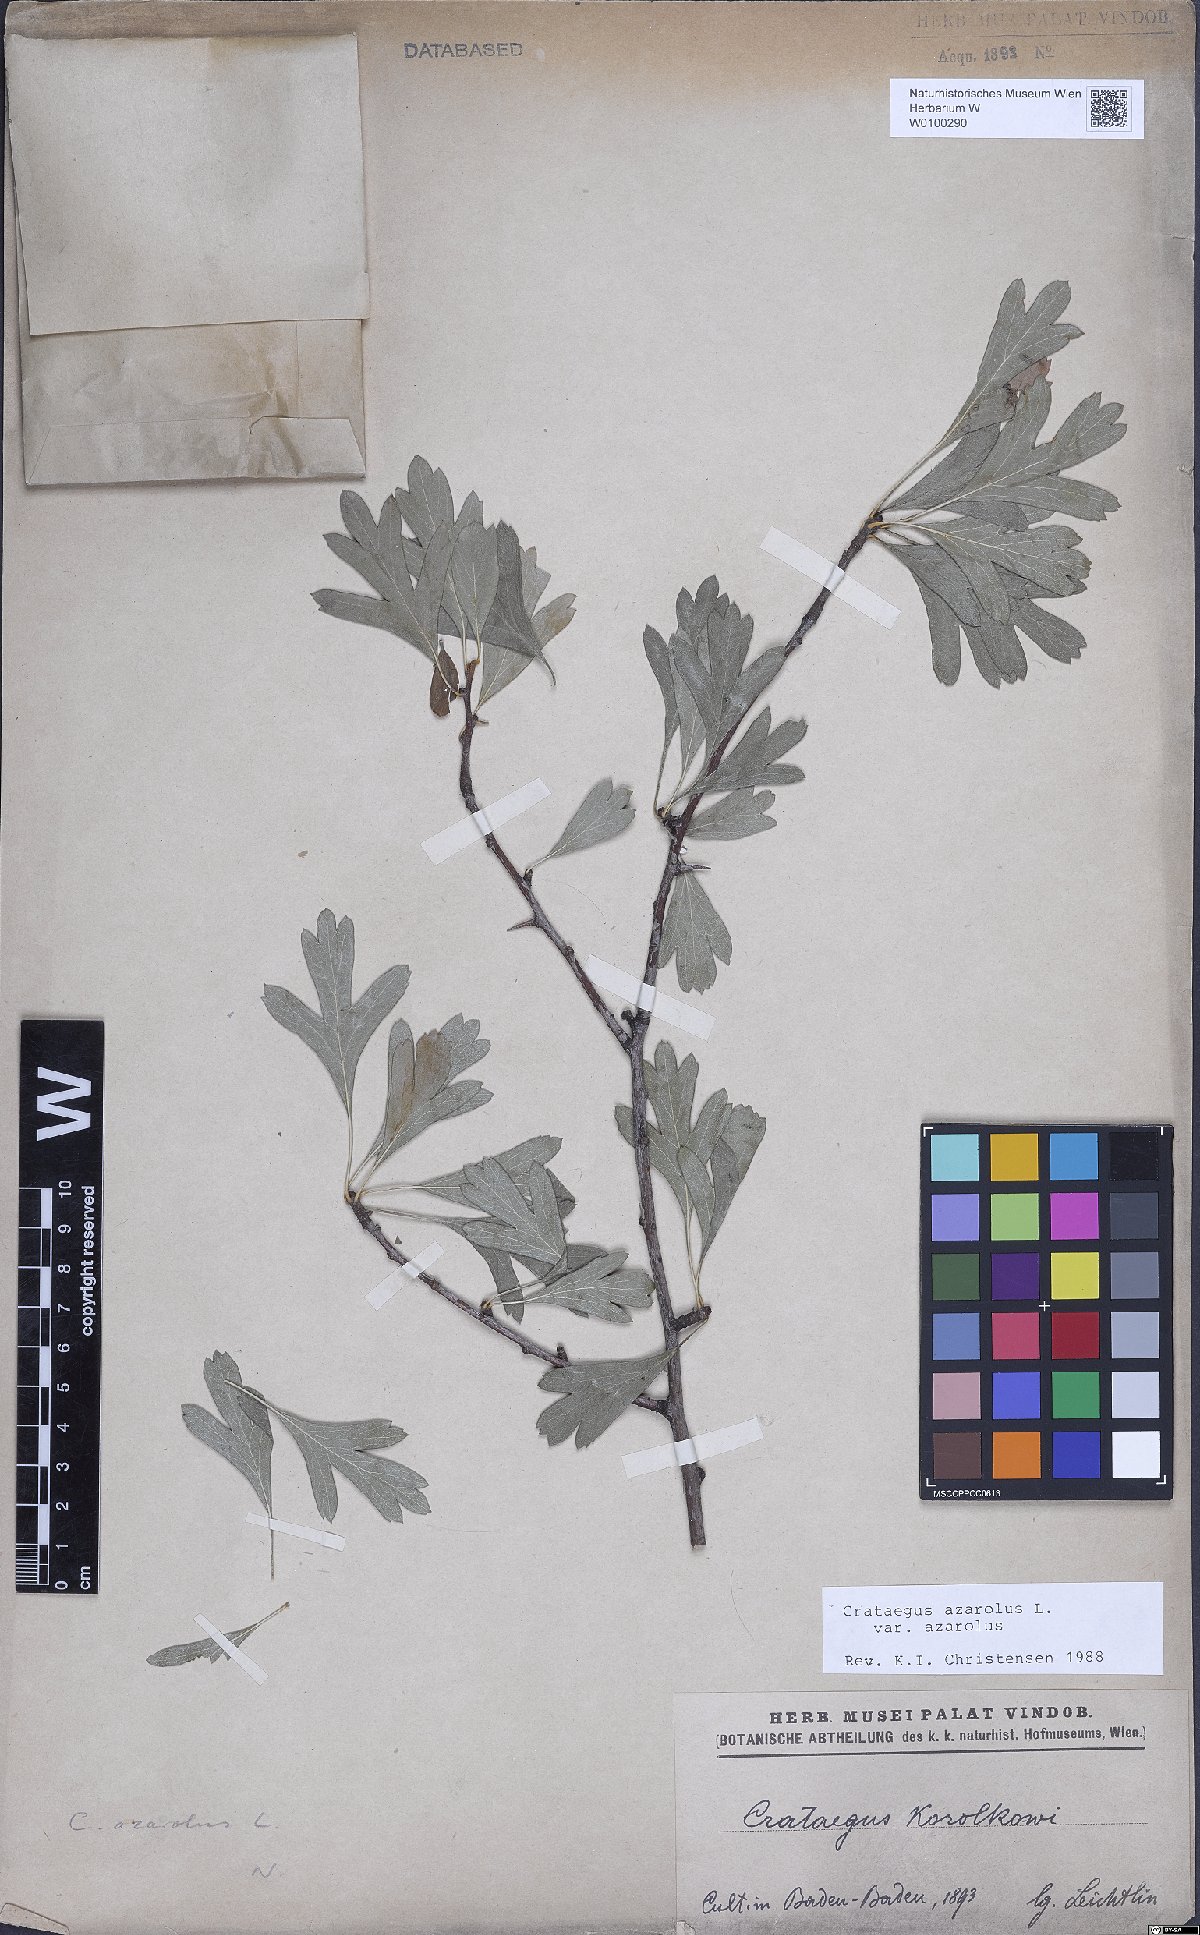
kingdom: Plantae
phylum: Tracheophyta
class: Magnoliopsida
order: Rosales
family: Rosaceae
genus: Crataegus
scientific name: Crataegus azarolus
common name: Azarole
